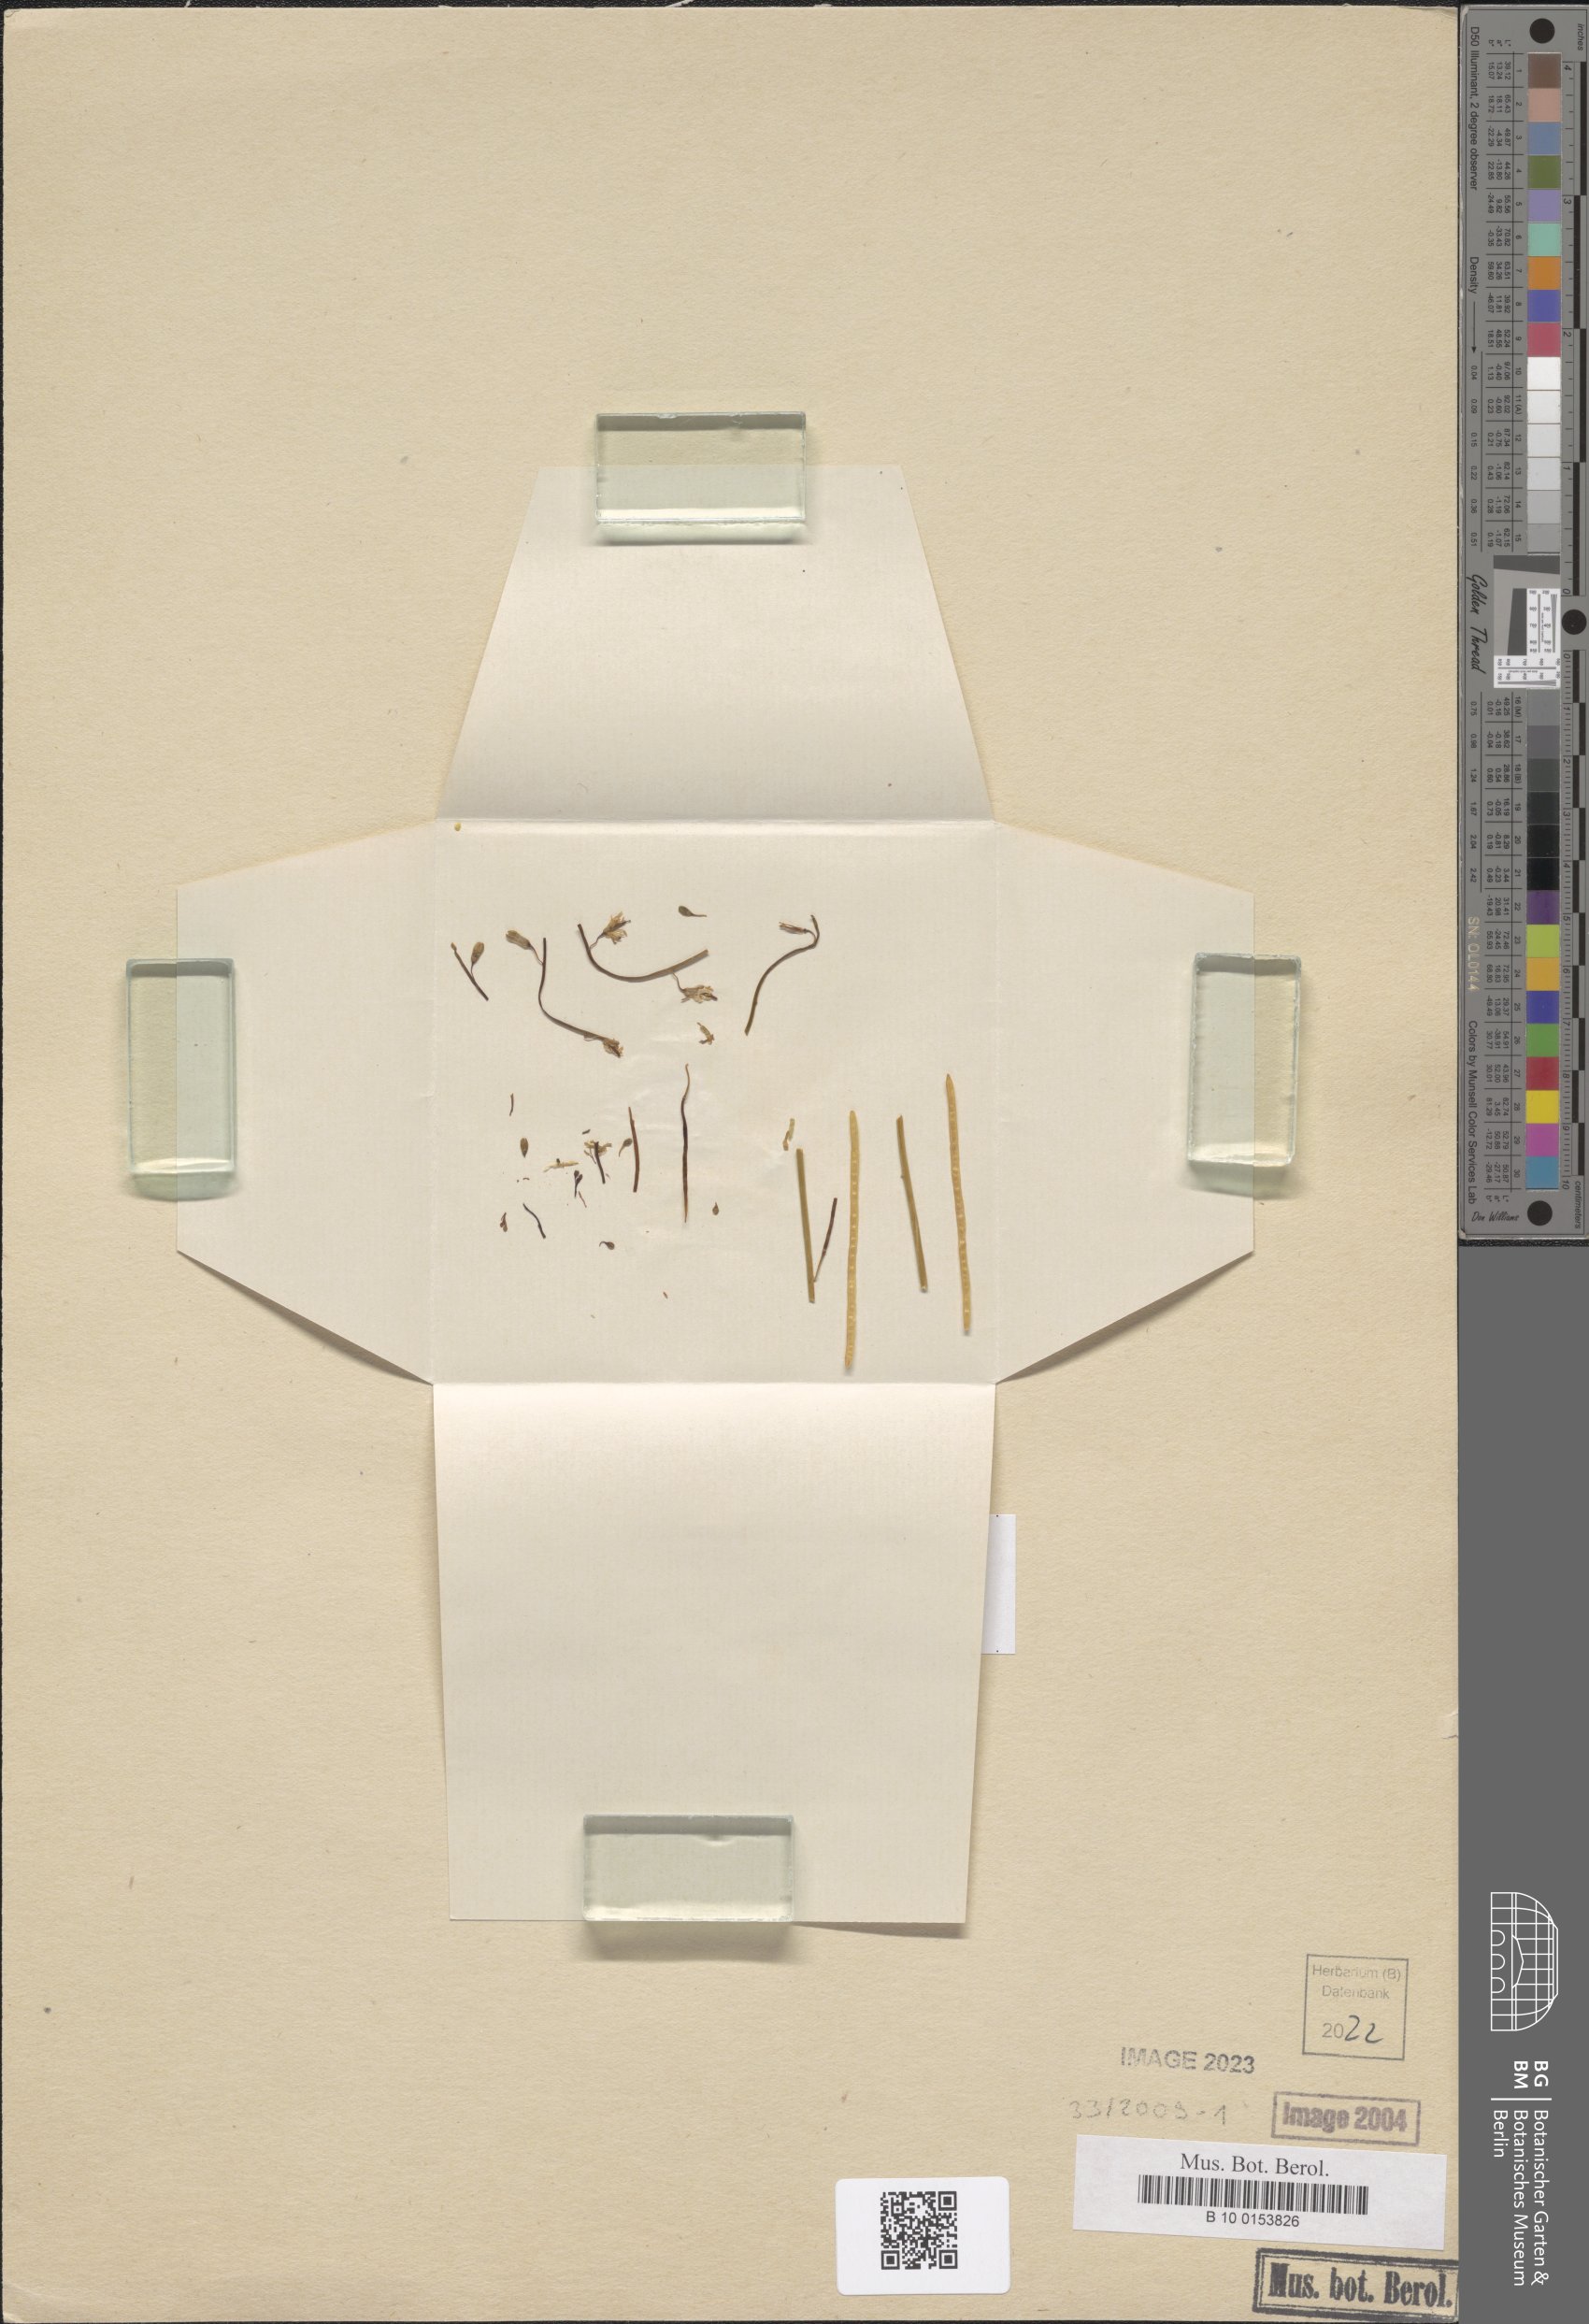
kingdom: Plantae
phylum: Tracheophyta
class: Magnoliopsida
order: Brassicales
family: Brassicaceae
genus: Heliophila
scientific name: Heliophila remotiflora
